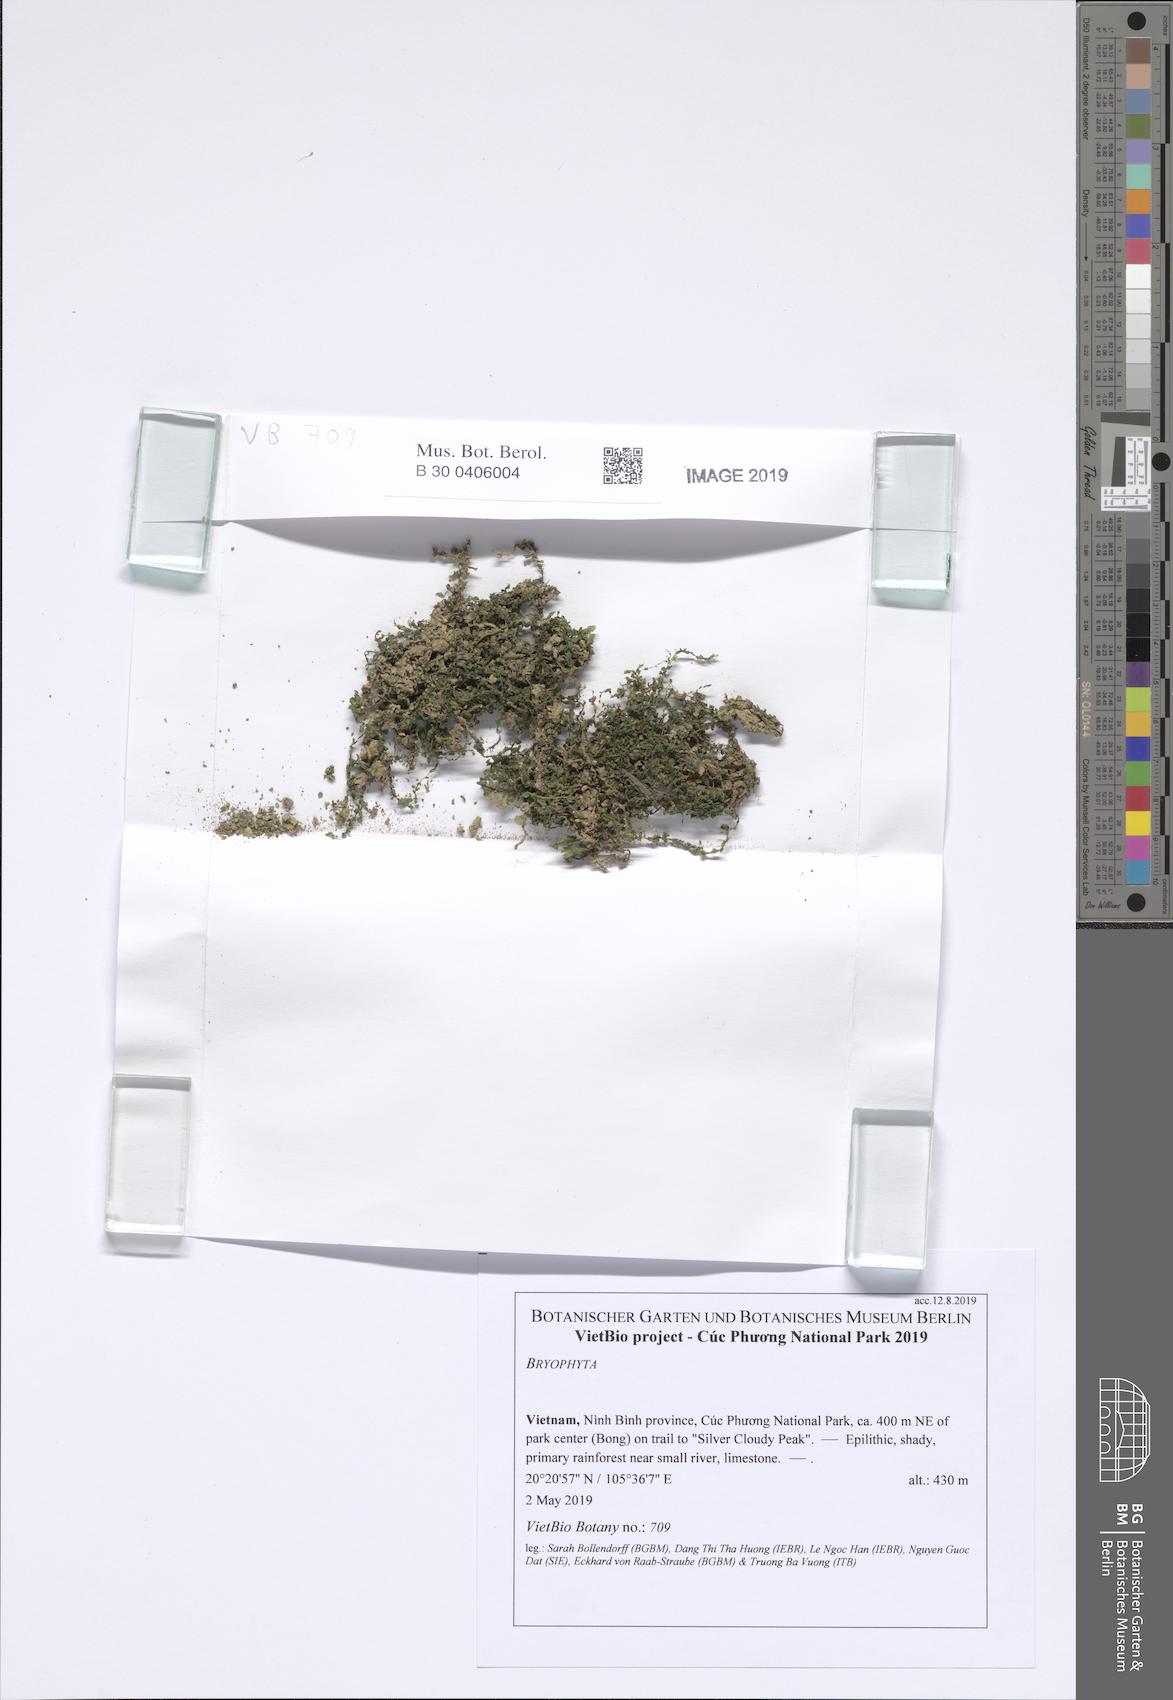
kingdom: Plantae
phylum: Bryophyta
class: Bryopsida
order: Bryales
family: Mniaceae
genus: Orthomnion
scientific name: Orthomnion dilatatum
